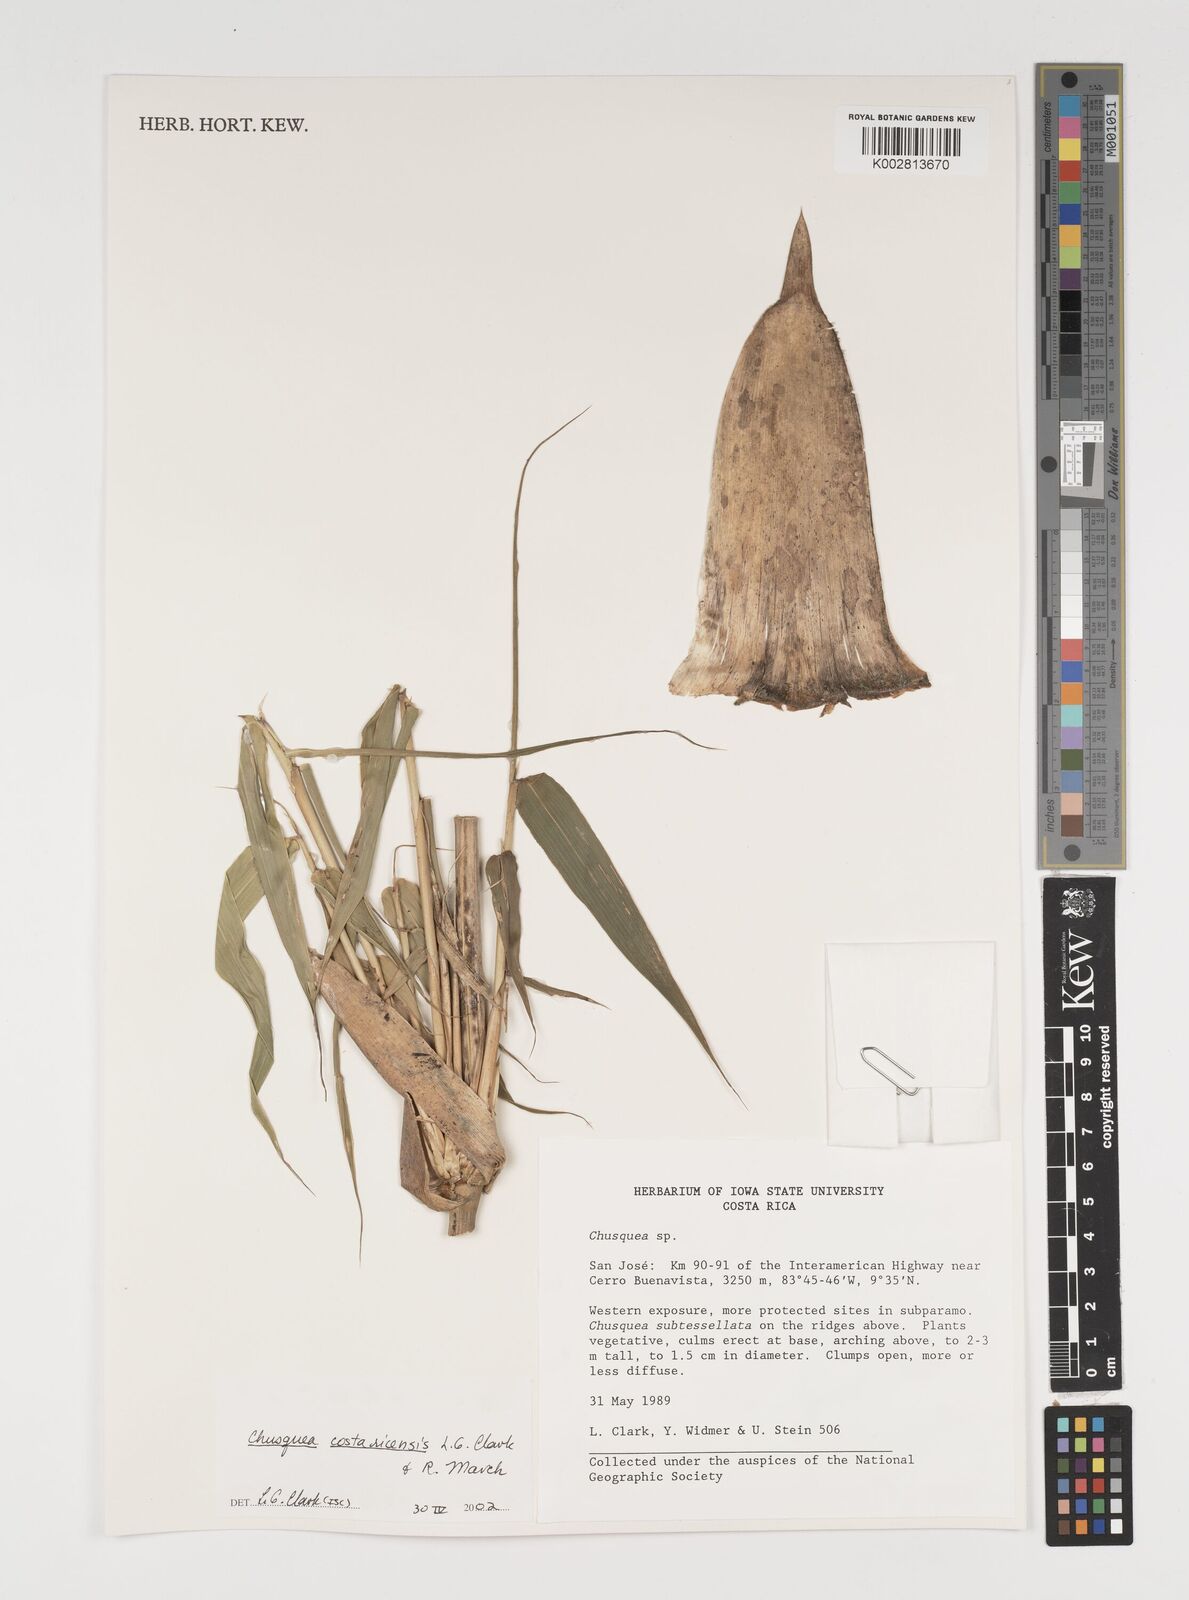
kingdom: Plantae
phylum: Tracheophyta
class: Liliopsida
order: Poales
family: Poaceae
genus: Chusquea
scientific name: Chusquea costaricensis
